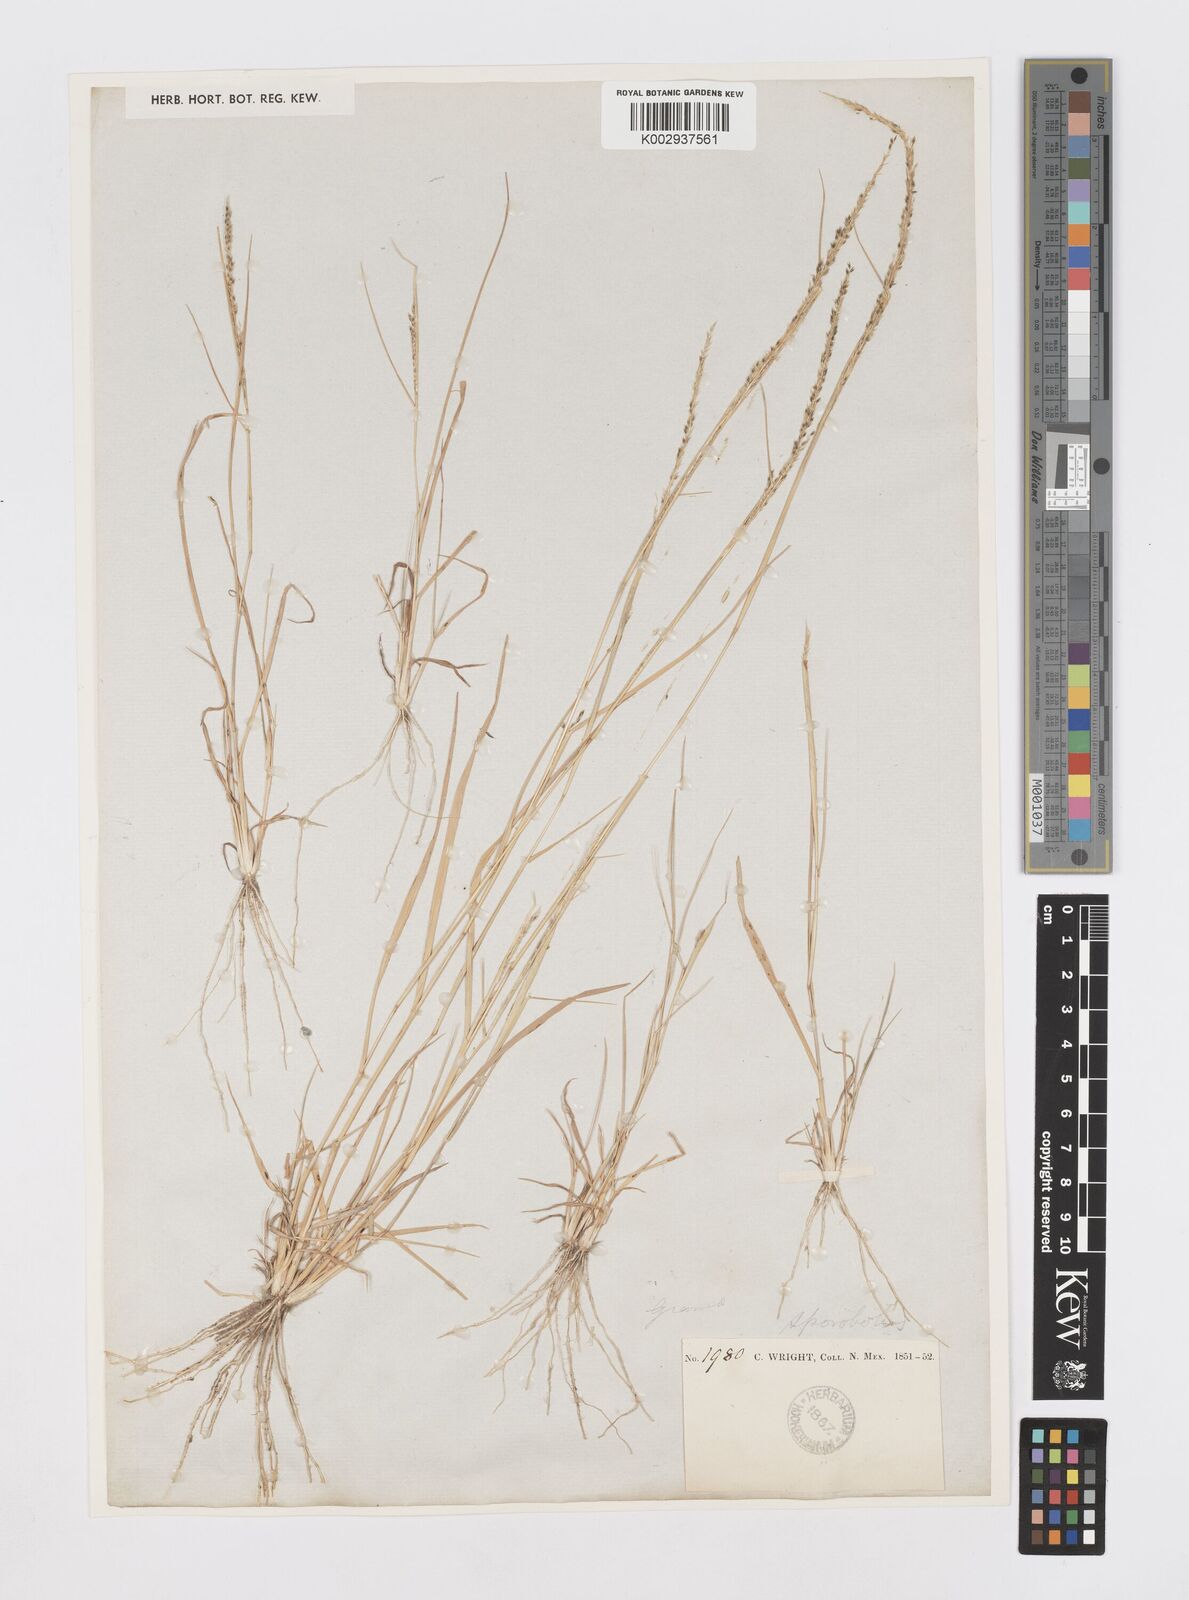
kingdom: Plantae
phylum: Tracheophyta
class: Liliopsida
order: Poales
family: Poaceae
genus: Sporobolus
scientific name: Sporobolus
